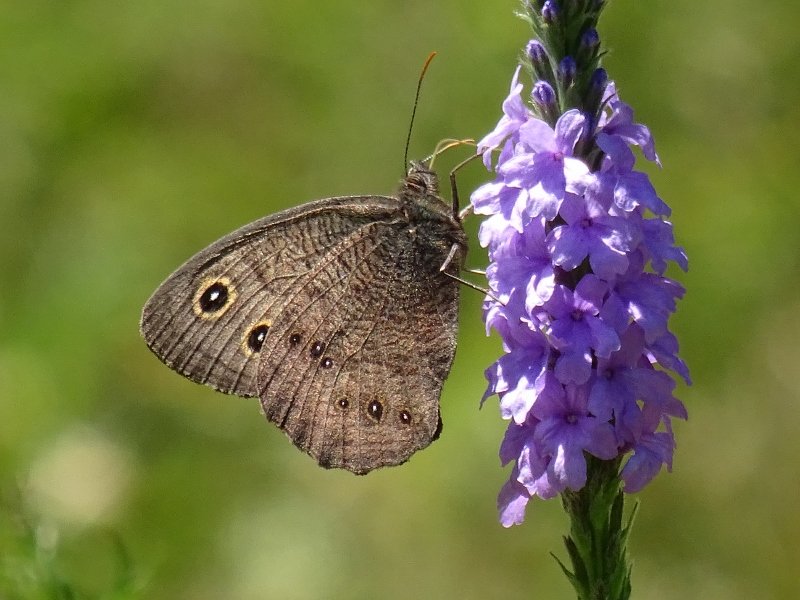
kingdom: Animalia
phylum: Arthropoda
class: Insecta
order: Lepidoptera
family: Nymphalidae
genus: Cercyonis
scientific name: Cercyonis pegala
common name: Common Wood-Nymph
